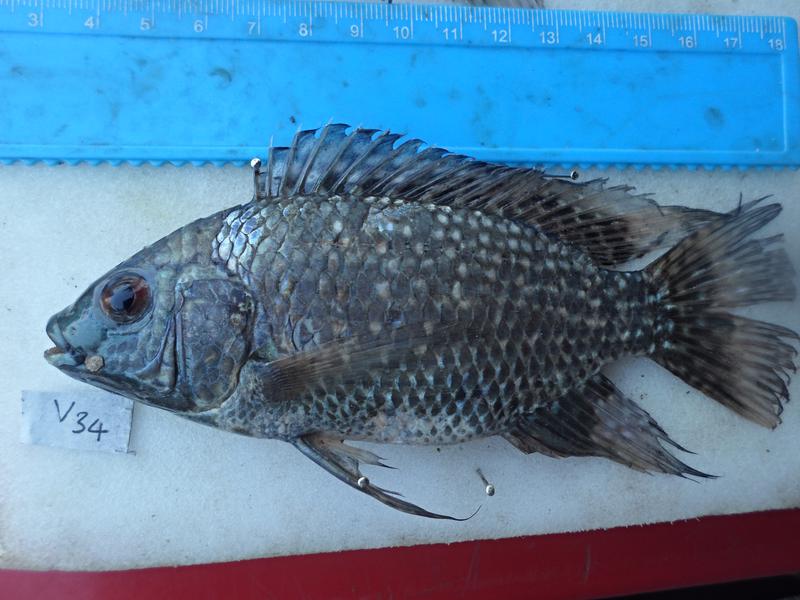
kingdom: Animalia
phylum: Chordata
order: Perciformes
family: Cichlidae
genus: Oreochromis
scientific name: Oreochromis leucostictus
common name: Blue spotted tilapia
